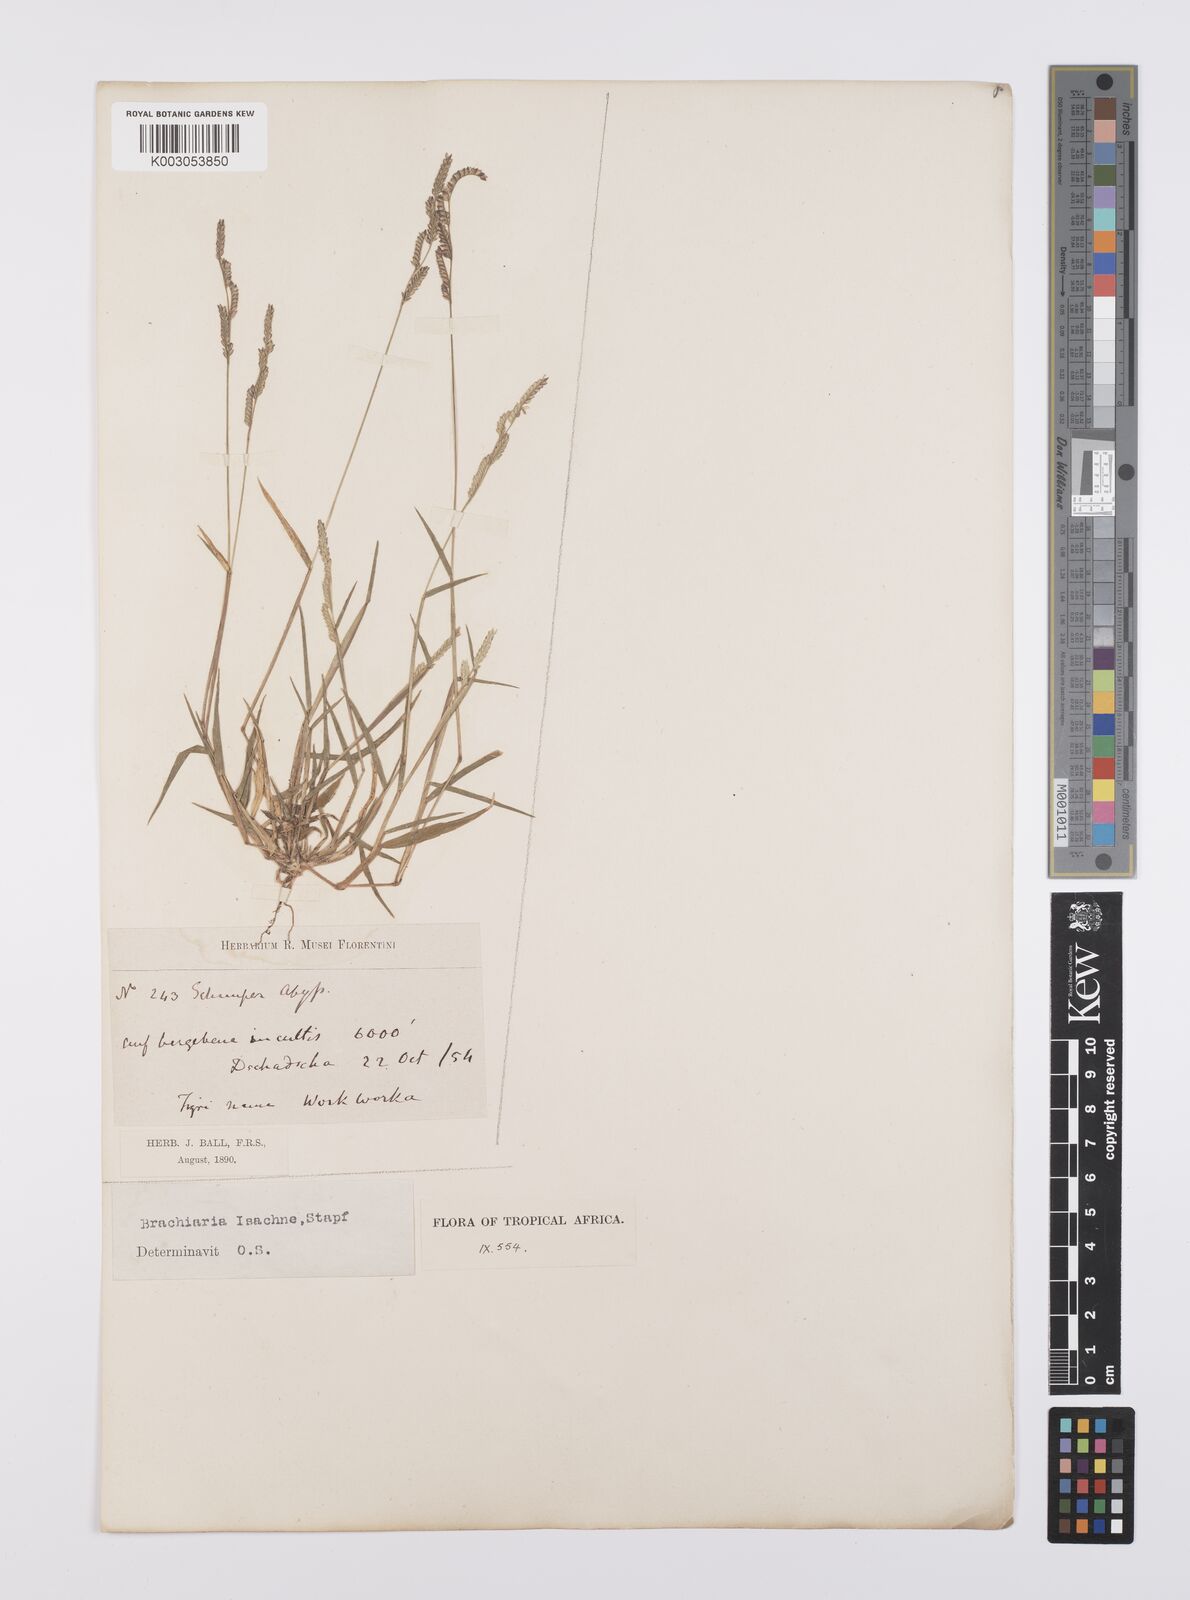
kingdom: Plantae
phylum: Tracheophyta
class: Liliopsida
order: Poales
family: Poaceae
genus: Moorochloa
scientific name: Moorochloa eruciformis
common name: Sweet signalgrass
